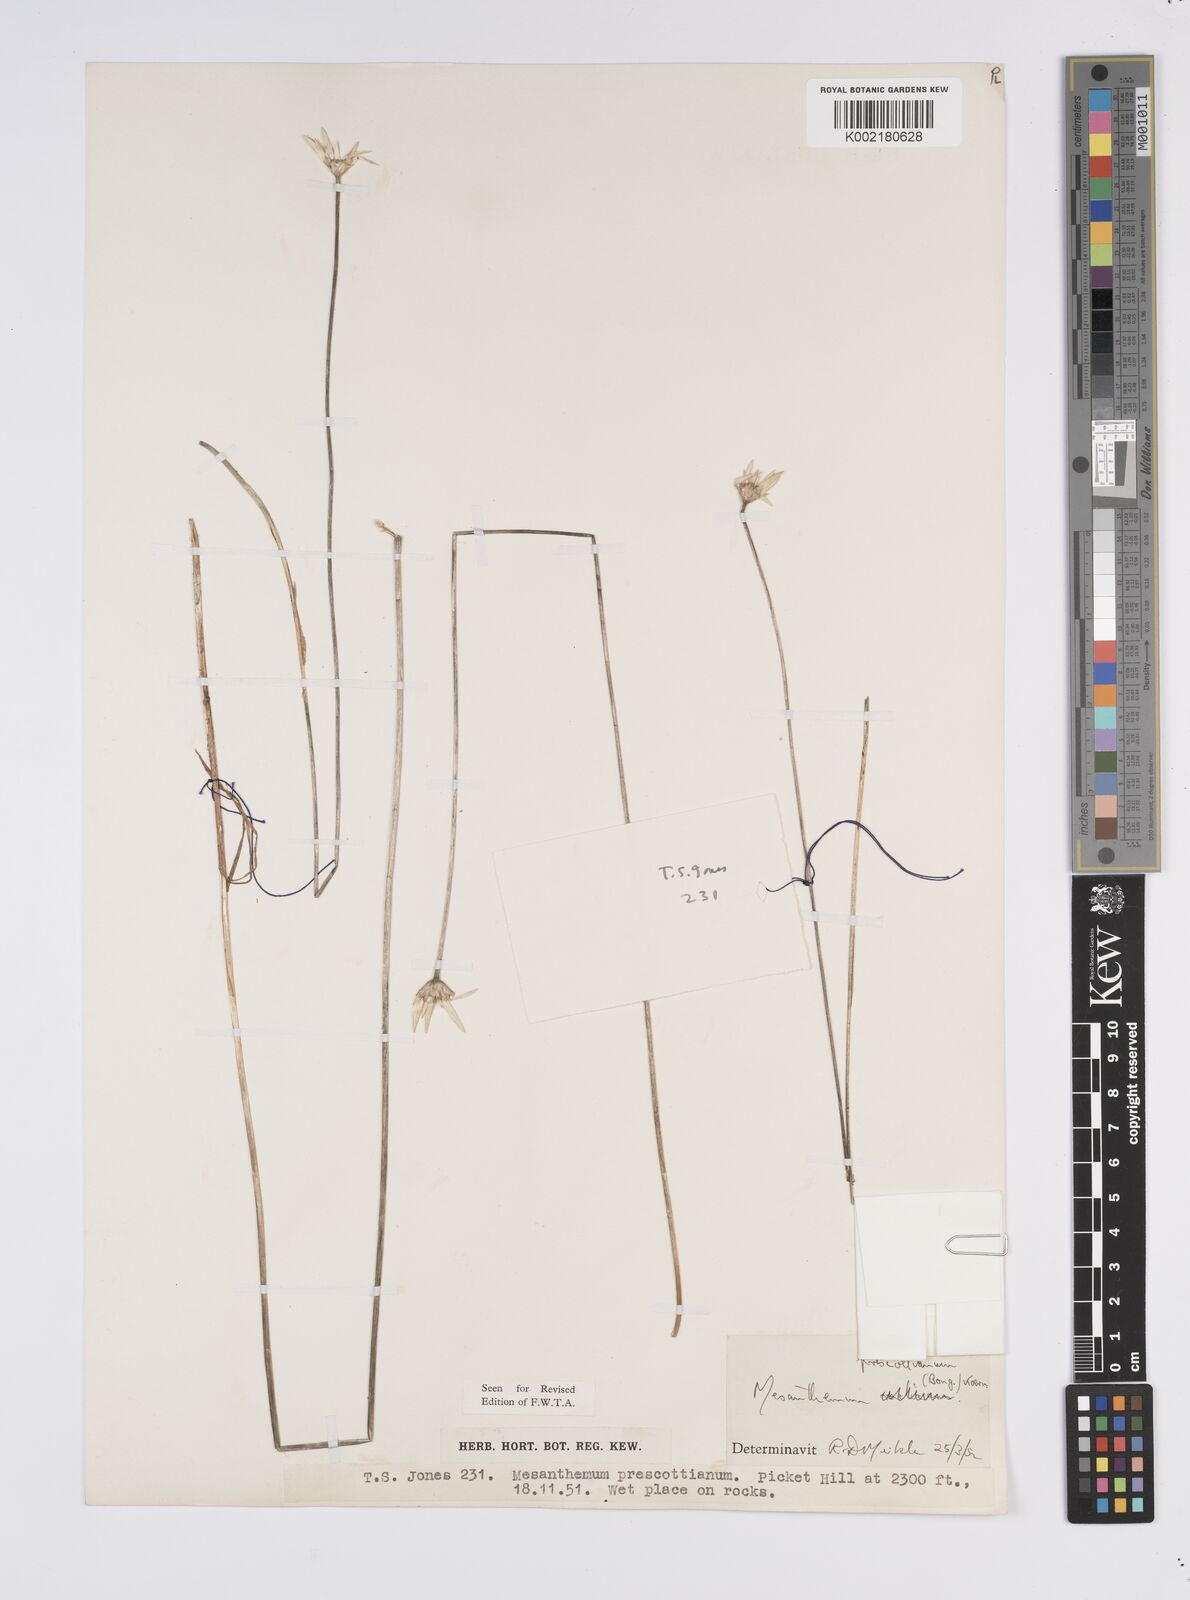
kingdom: Plantae
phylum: Tracheophyta
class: Liliopsida
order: Poales
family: Eriocaulaceae
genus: Mesanthemum
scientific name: Mesanthemum prescottianum
